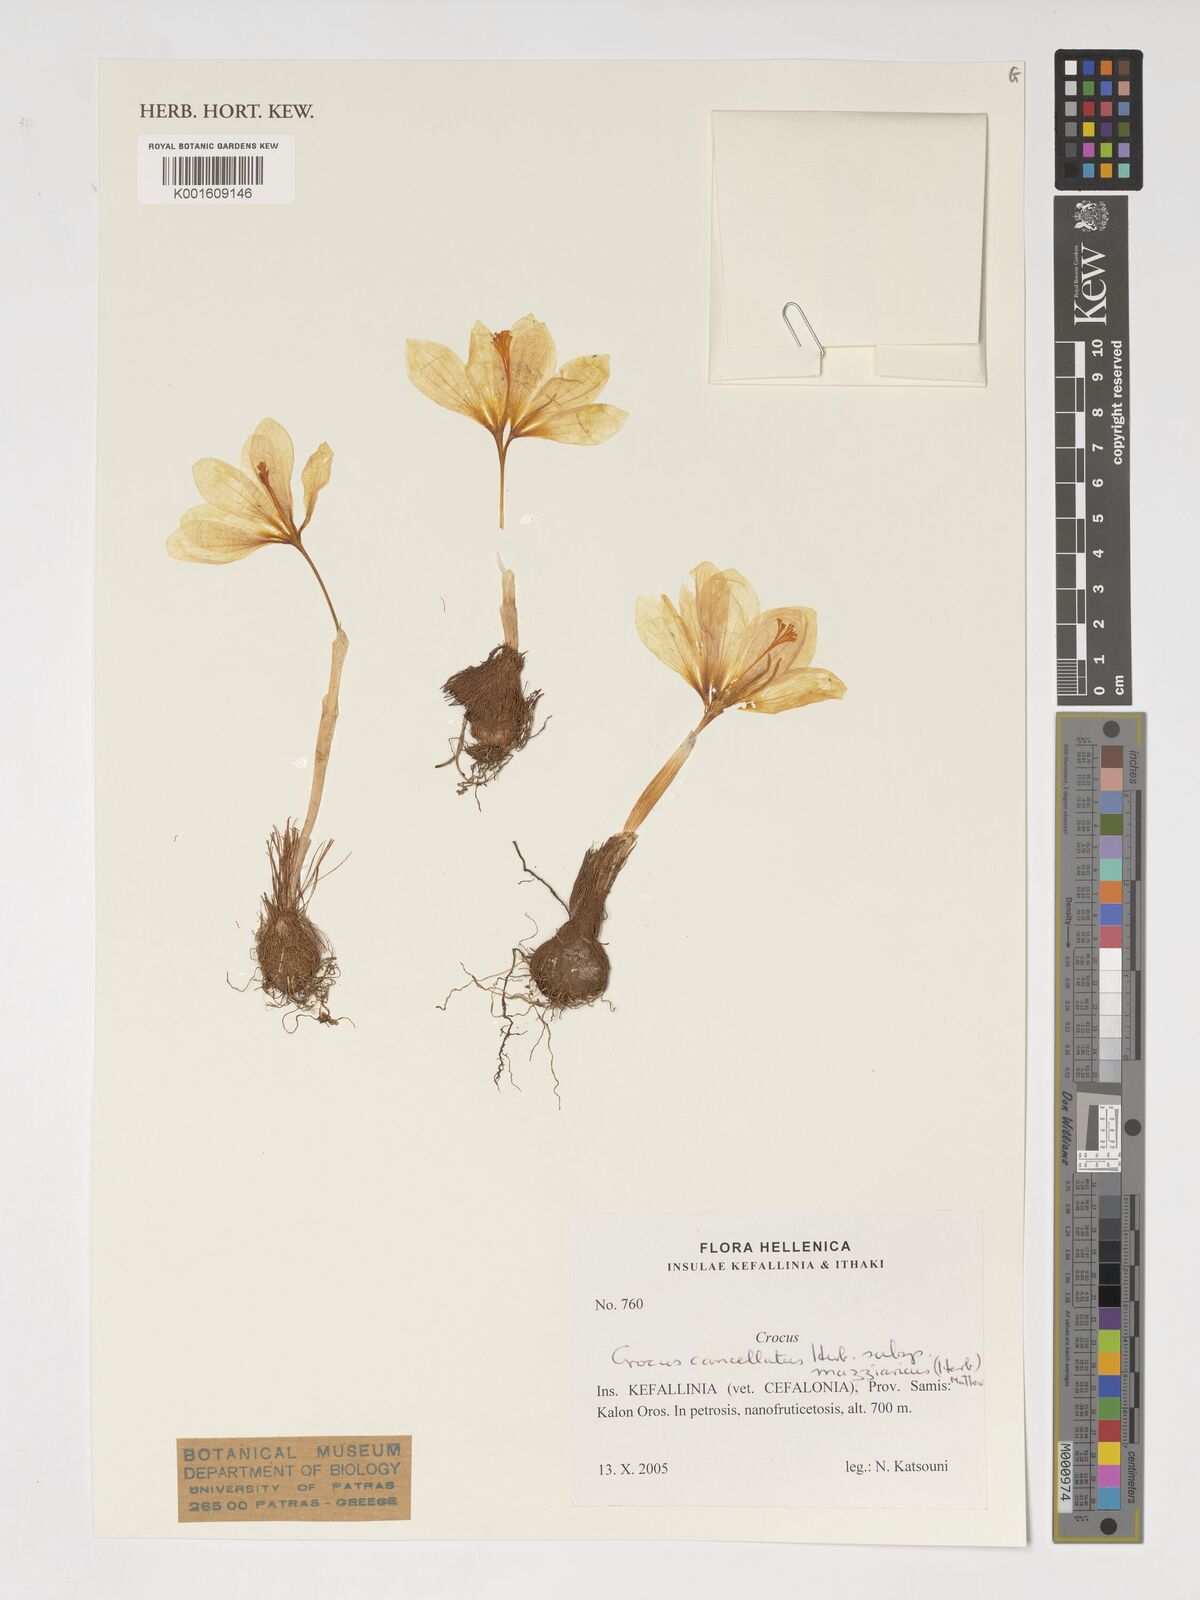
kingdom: Plantae
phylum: Tracheophyta
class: Liliopsida
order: Asparagales
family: Iridaceae
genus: Crocus
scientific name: Crocus mazziaricus
